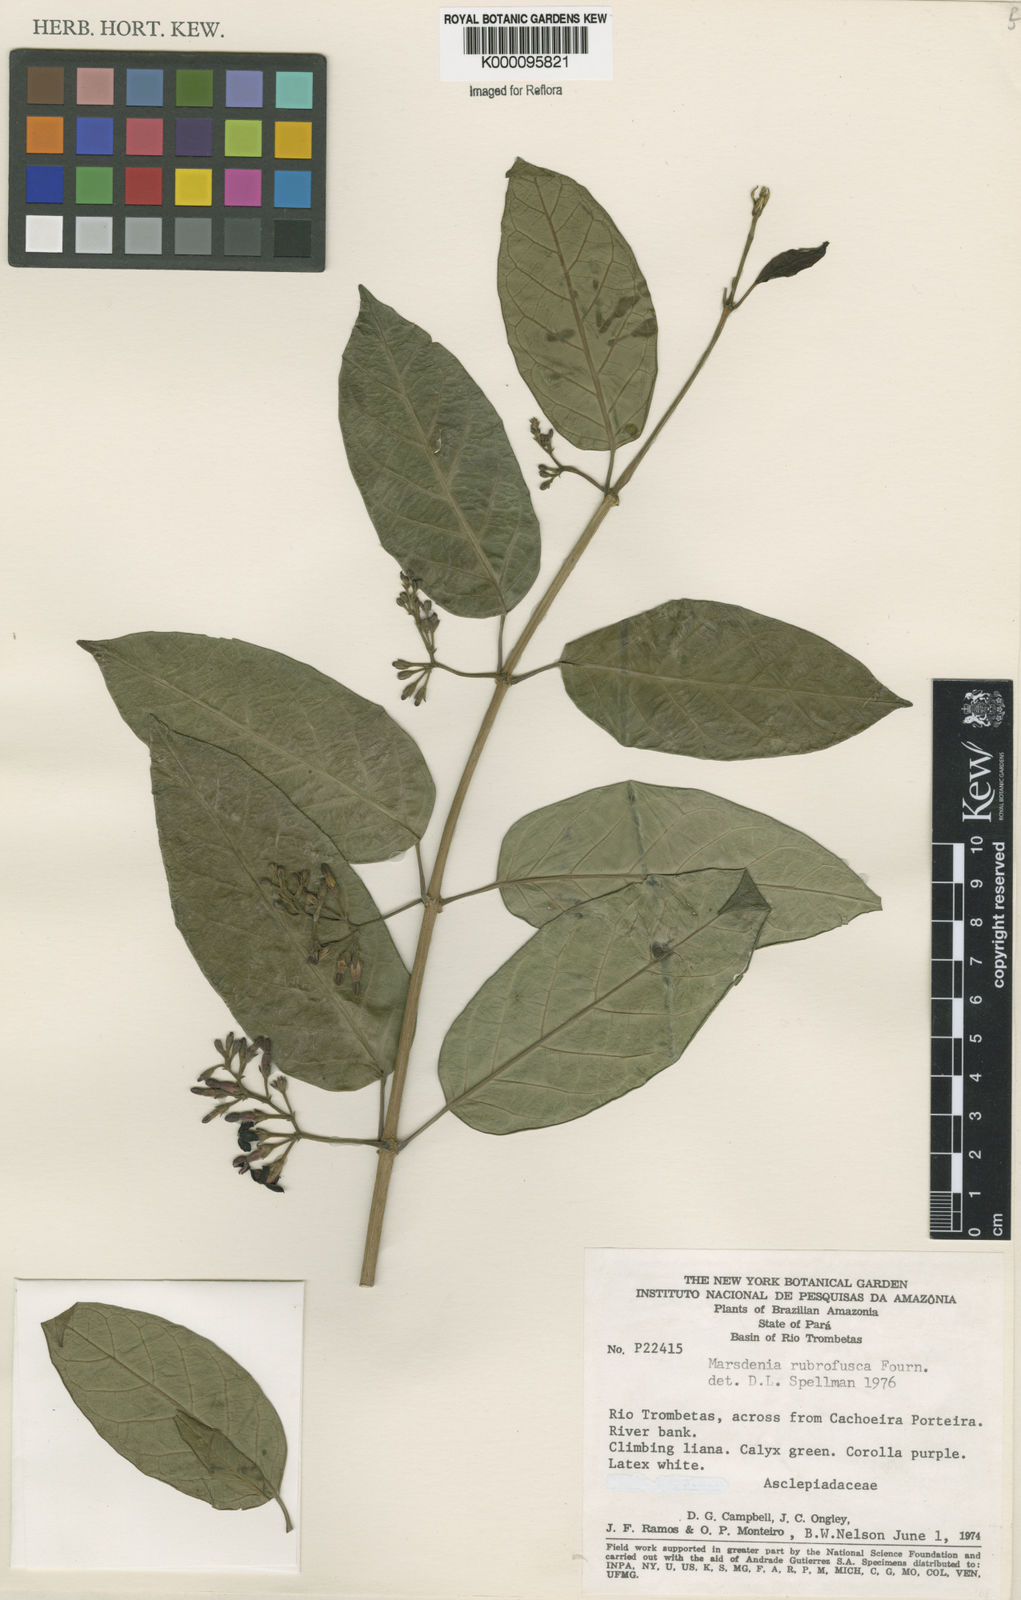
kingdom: Plantae
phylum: Tracheophyta
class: Magnoliopsida
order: Gentianales
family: Apocynaceae
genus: Ruehssia
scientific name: Ruehssia rubrofusca
